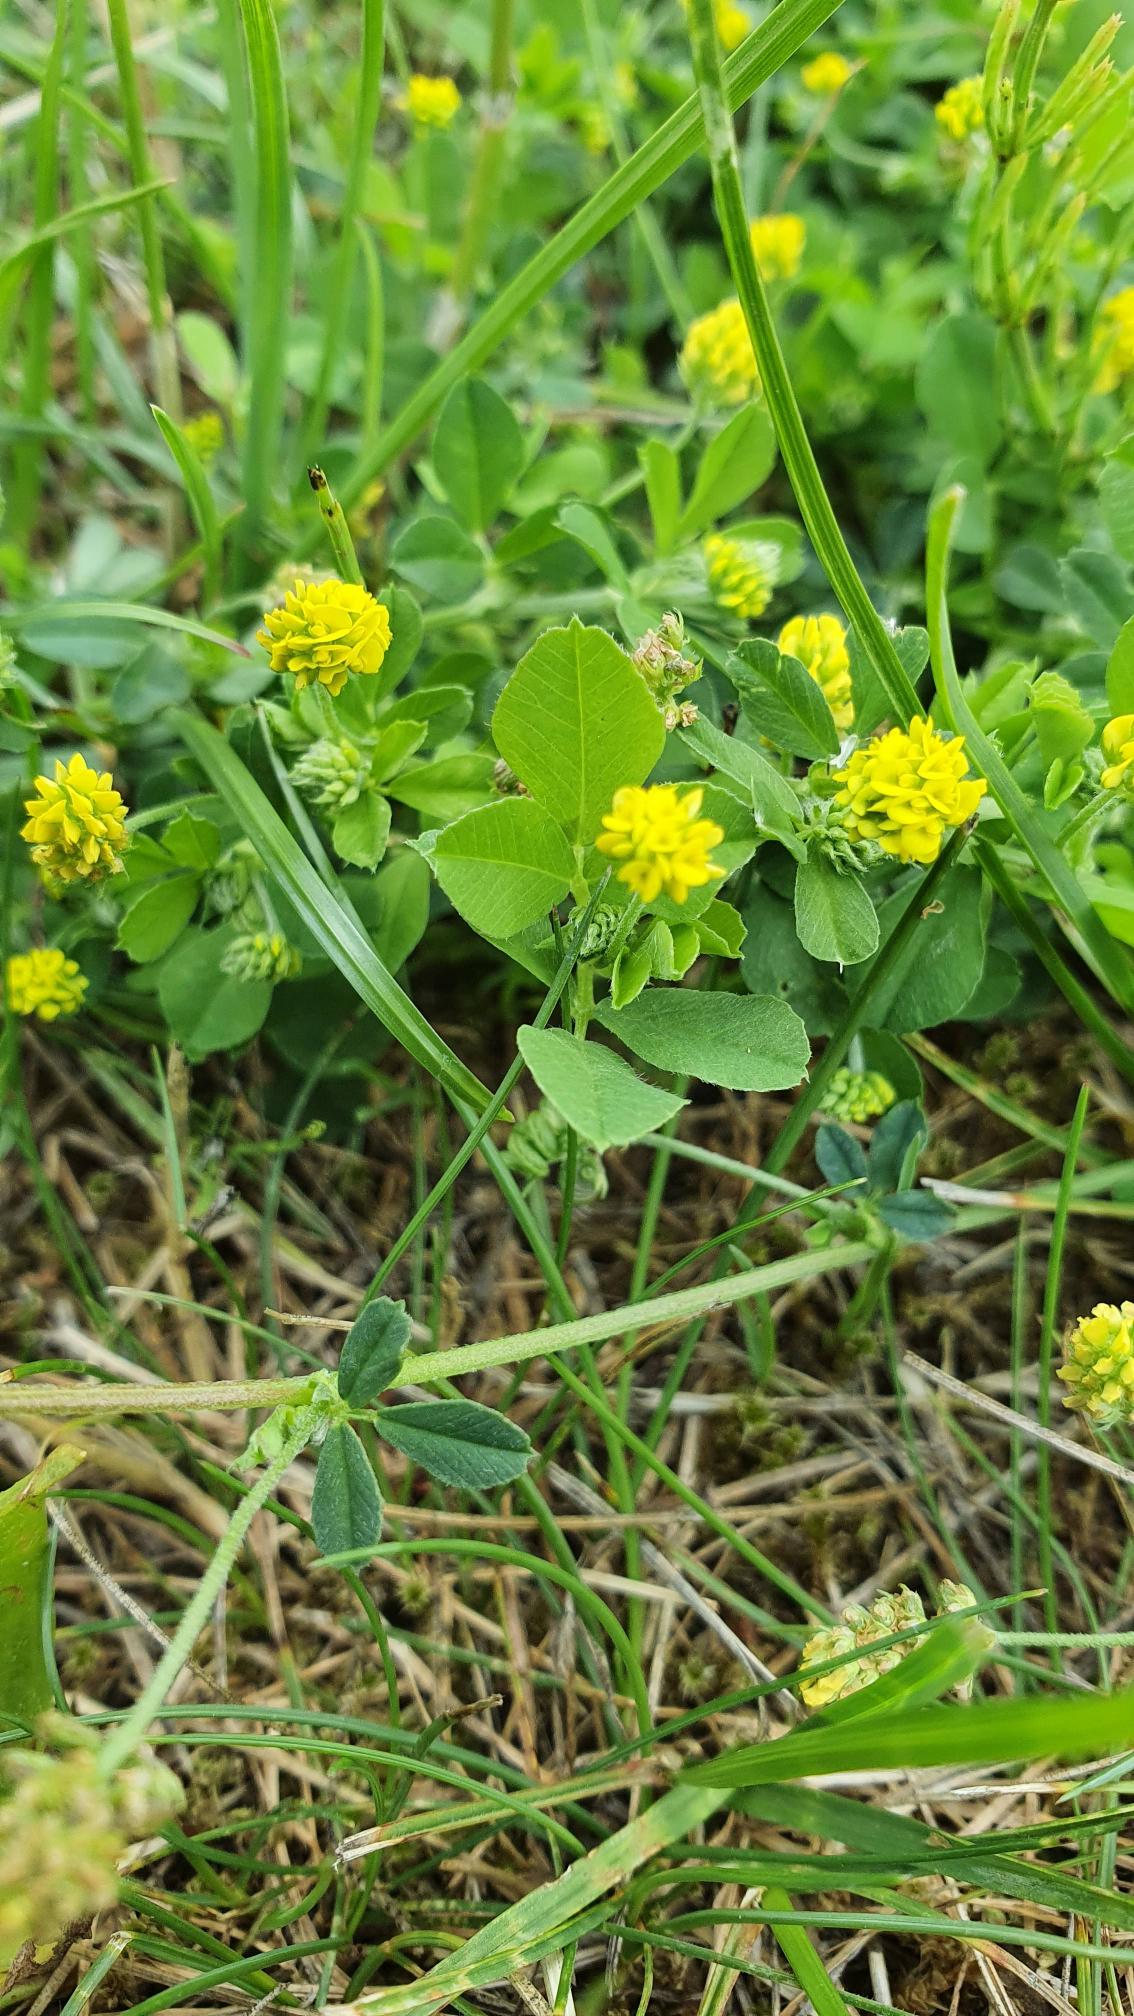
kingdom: Plantae
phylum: Tracheophyta
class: Magnoliopsida
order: Fabales
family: Fabaceae
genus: Medicago
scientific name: Medicago lupulina
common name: Humle-sneglebælg
